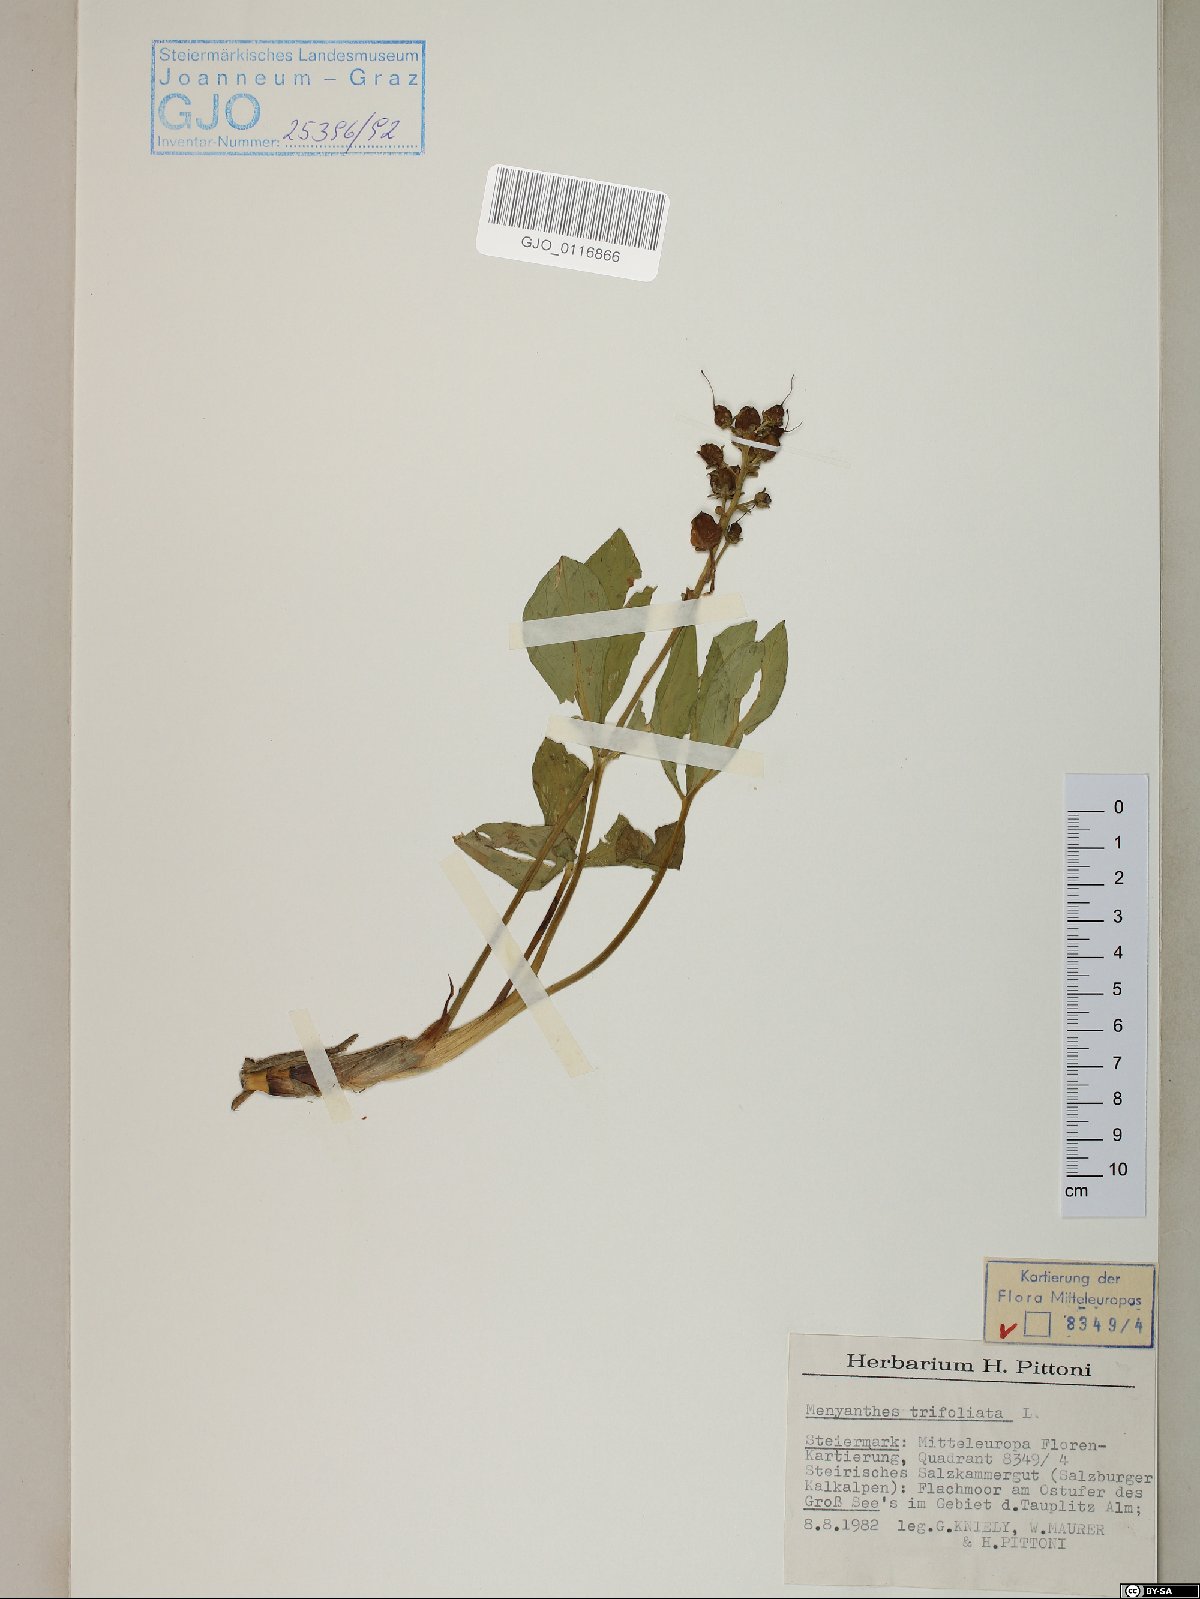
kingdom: Plantae
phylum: Tracheophyta
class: Magnoliopsida
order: Asterales
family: Menyanthaceae
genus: Menyanthes
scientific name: Menyanthes trifoliata
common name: Bogbean
